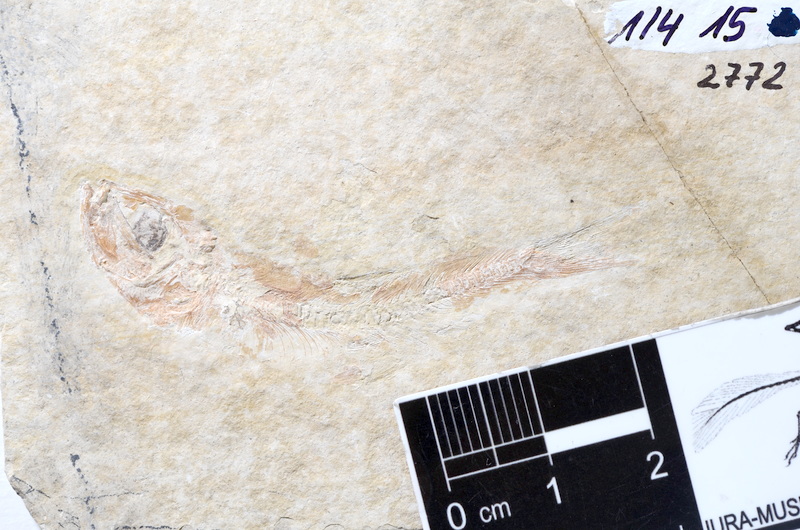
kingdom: Animalia
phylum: Chordata
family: Ascalaboidae
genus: Tharsis
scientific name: Tharsis dubius
